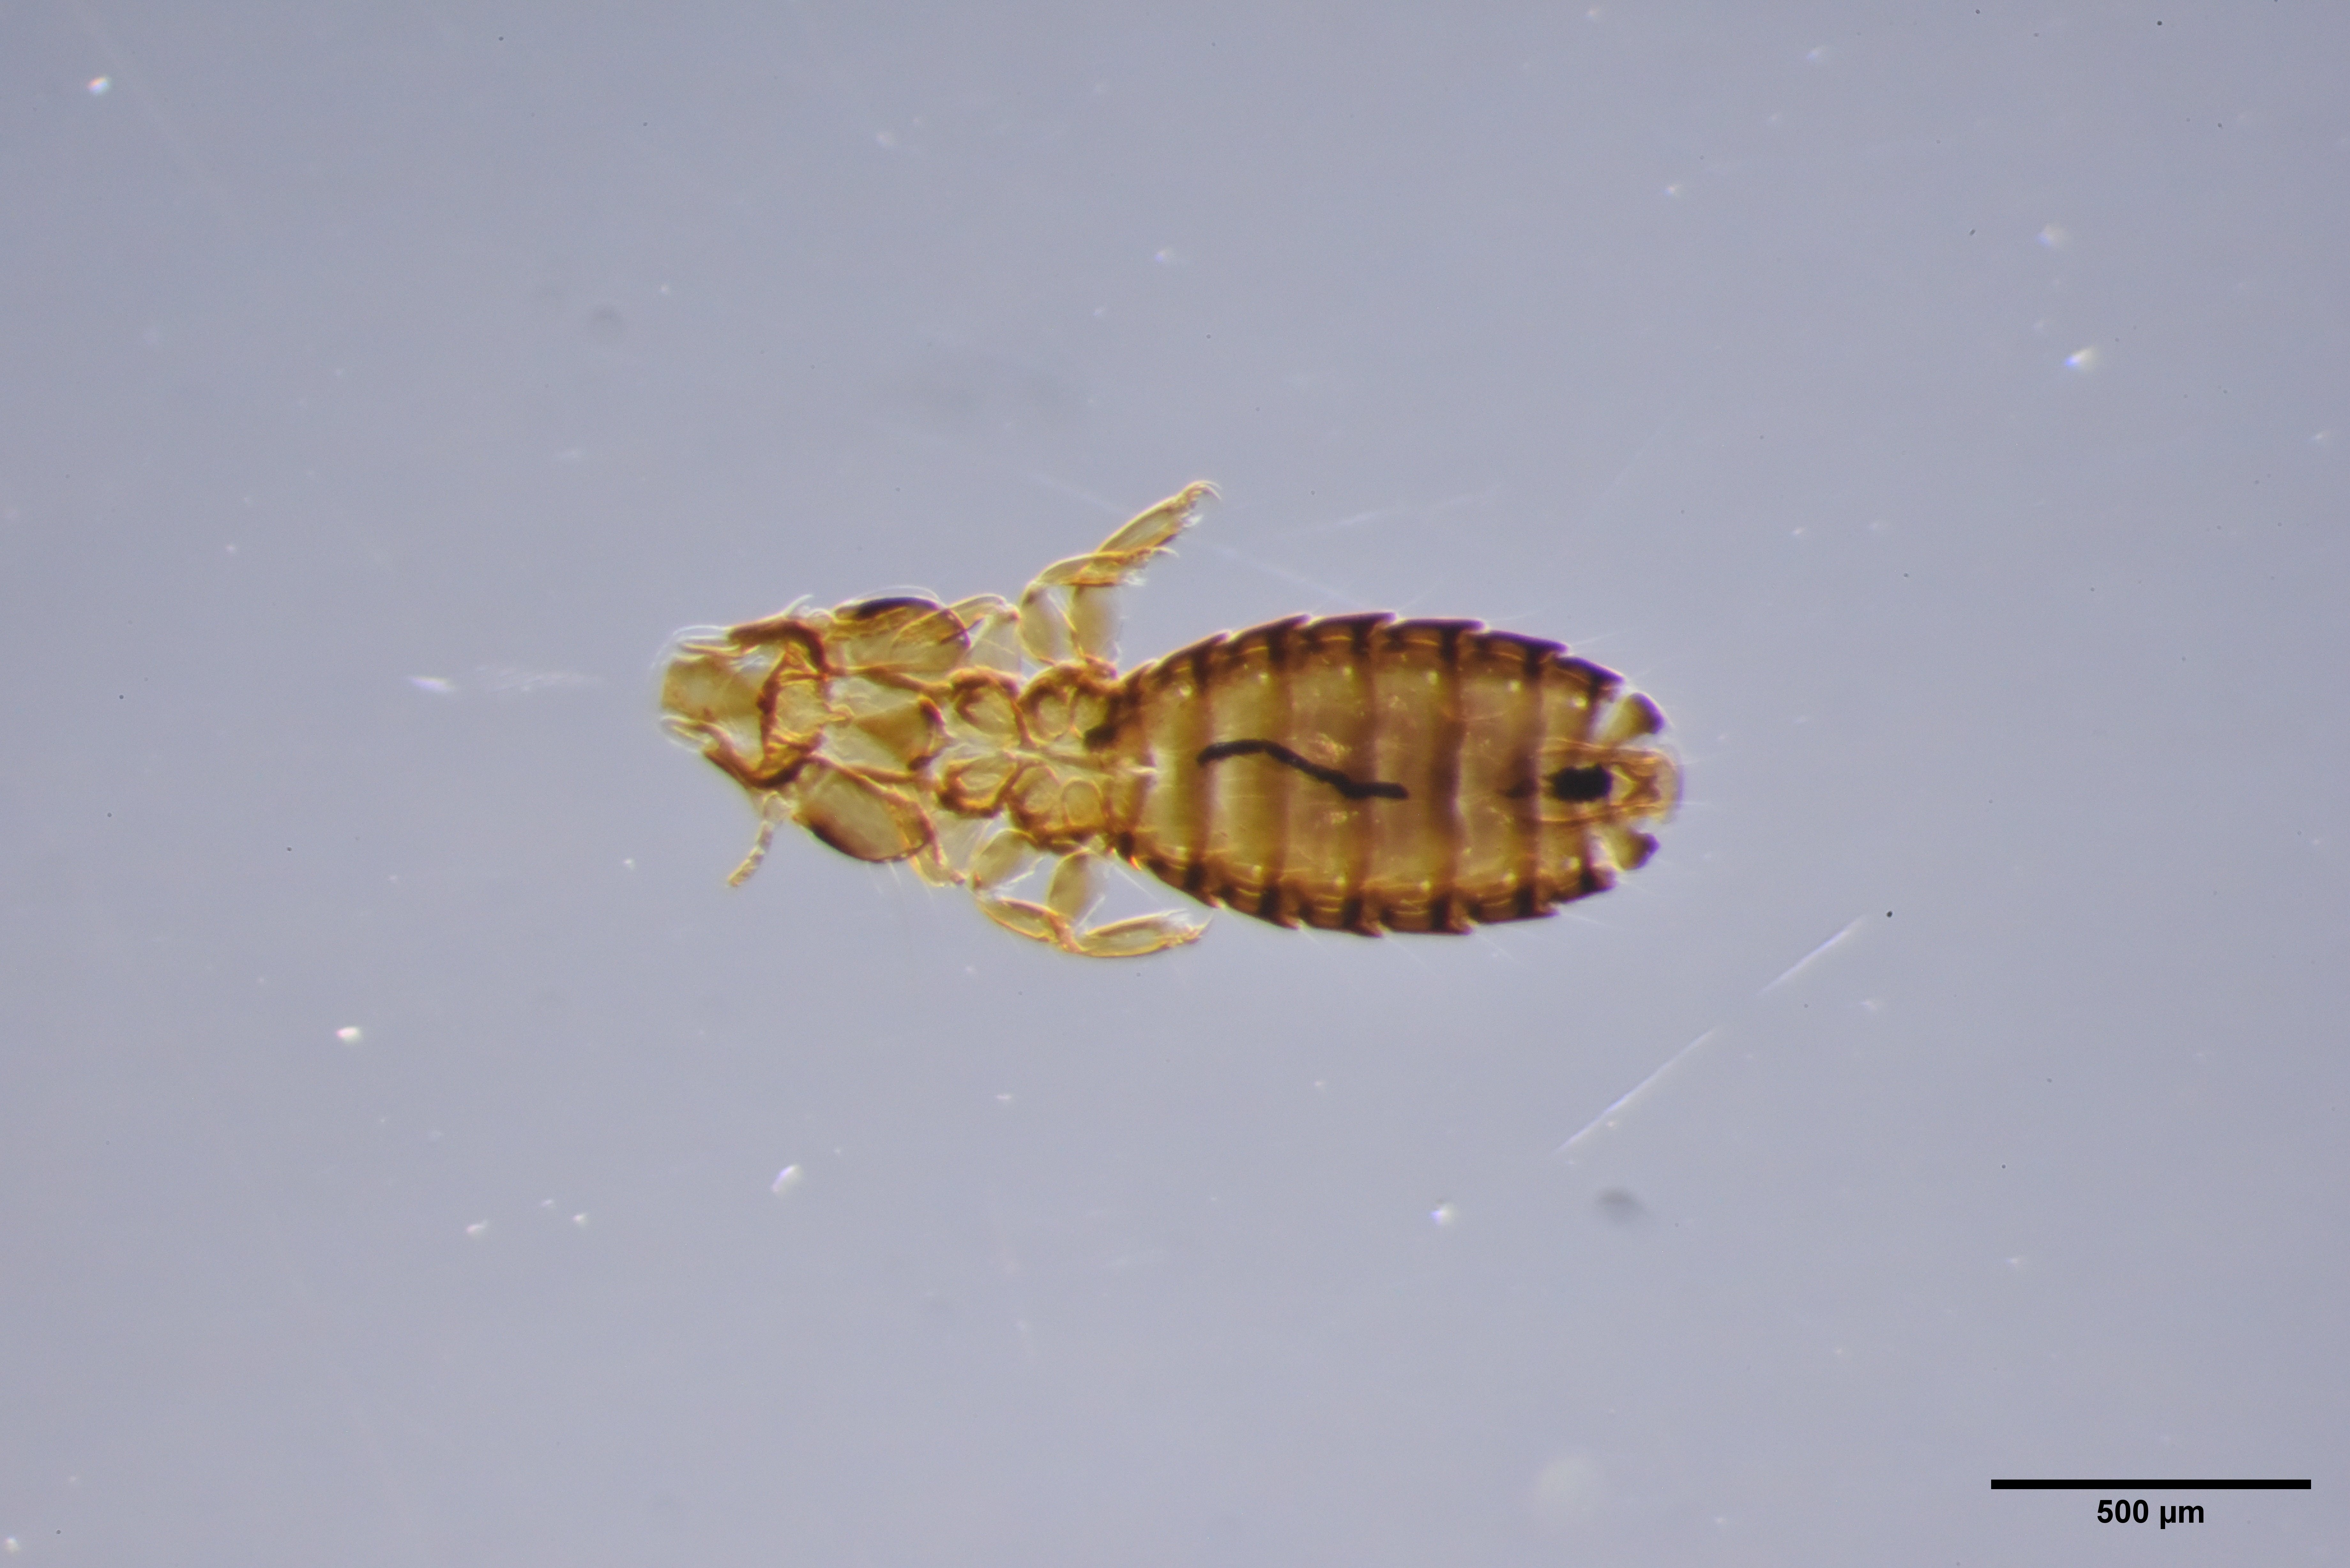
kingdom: Animalia
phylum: Arthropoda
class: Insecta
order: Psocodea
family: Philopteridae
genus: Saemundssonia
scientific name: Saemundssonia limosae
